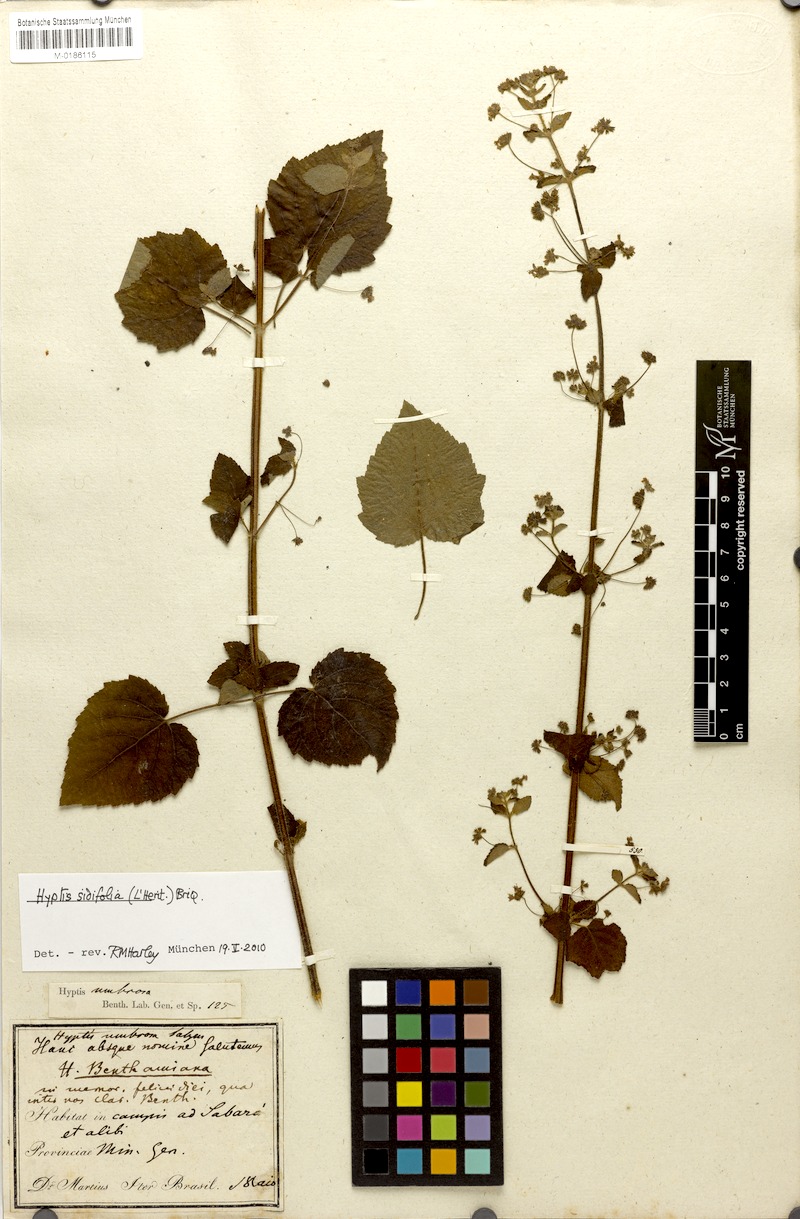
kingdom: Plantae
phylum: Tracheophyta
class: Magnoliopsida
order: Lamiales
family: Lamiaceae
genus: Mesosphaerum
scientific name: Mesosphaerum sidifolium
